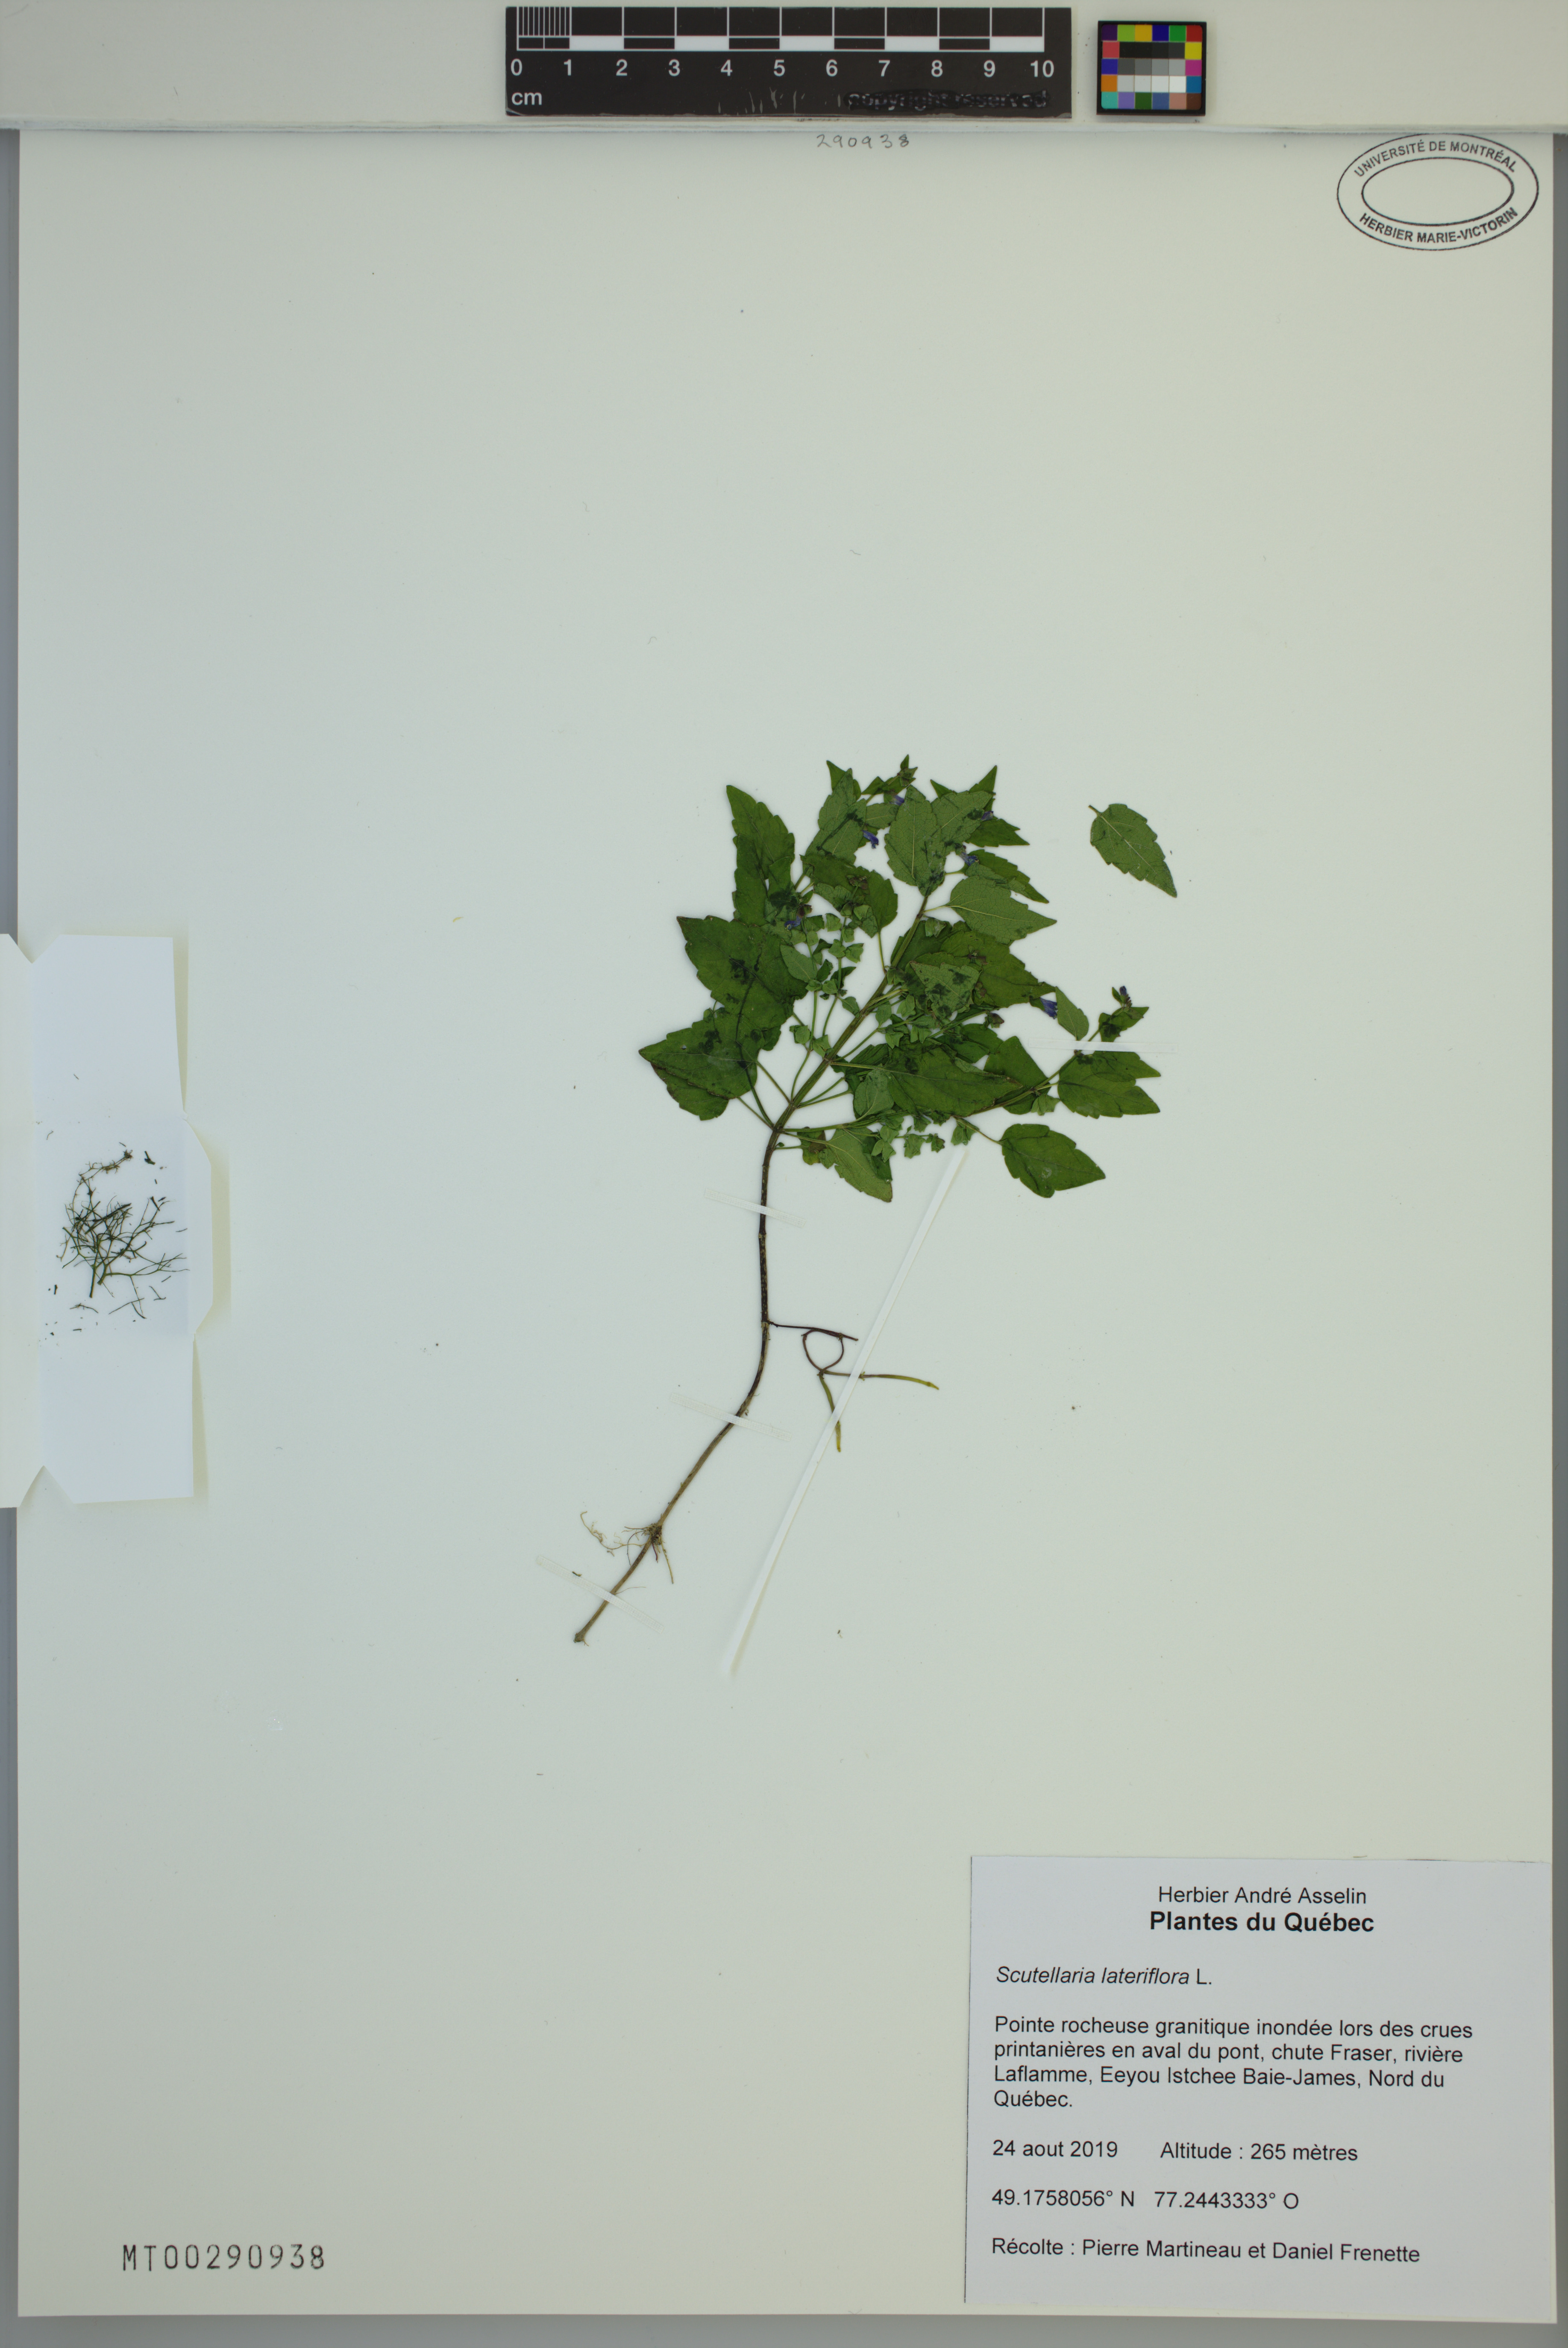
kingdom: Plantae
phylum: Tracheophyta
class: Magnoliopsida
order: Lamiales
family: Lamiaceae
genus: Scutellaria
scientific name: Scutellaria lateriflora
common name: Blue skullcap
